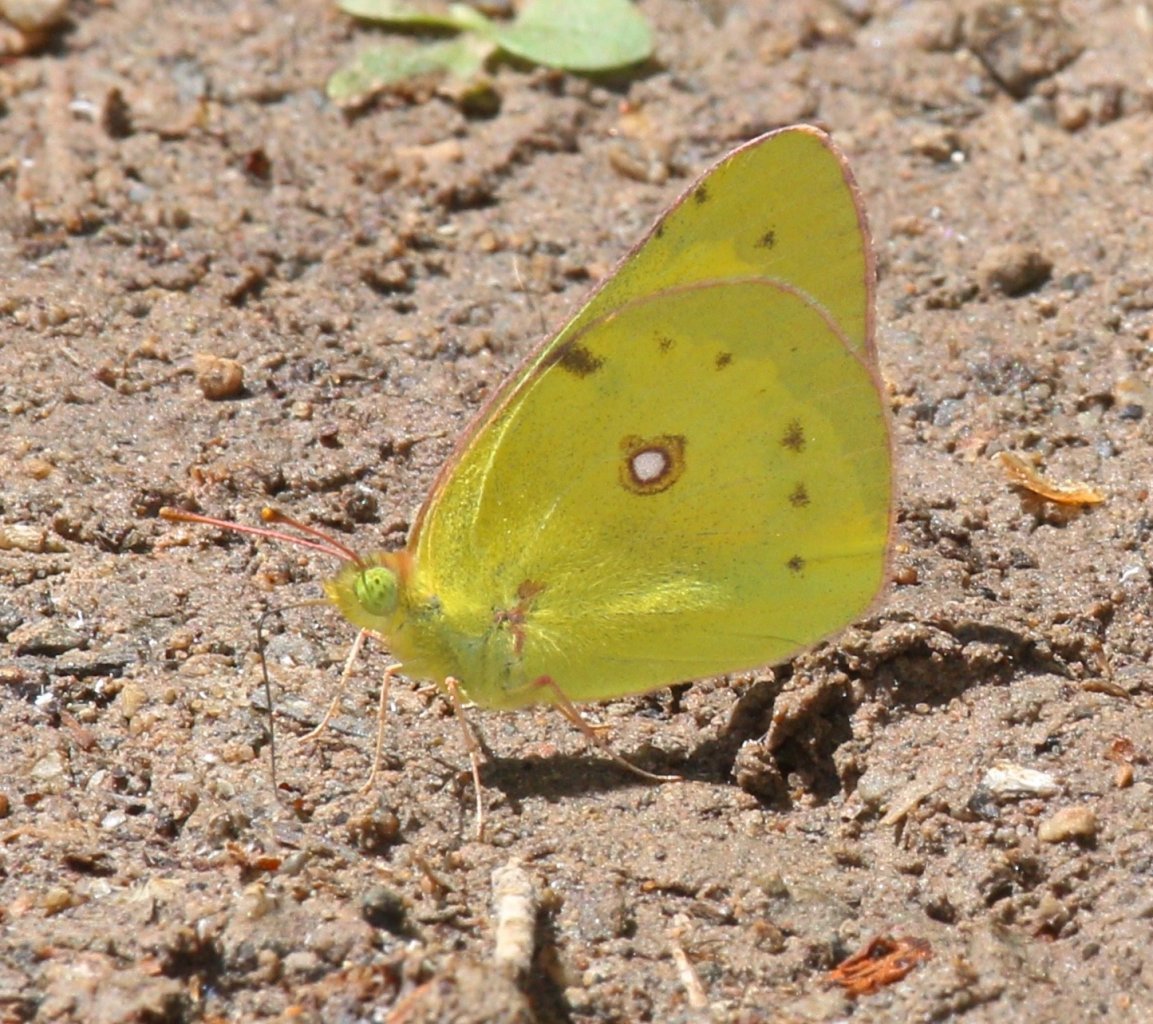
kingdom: Animalia
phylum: Arthropoda
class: Insecta
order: Lepidoptera
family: Pieridae
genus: Colias
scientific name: Colias philodice
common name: Clouded Sulphur
